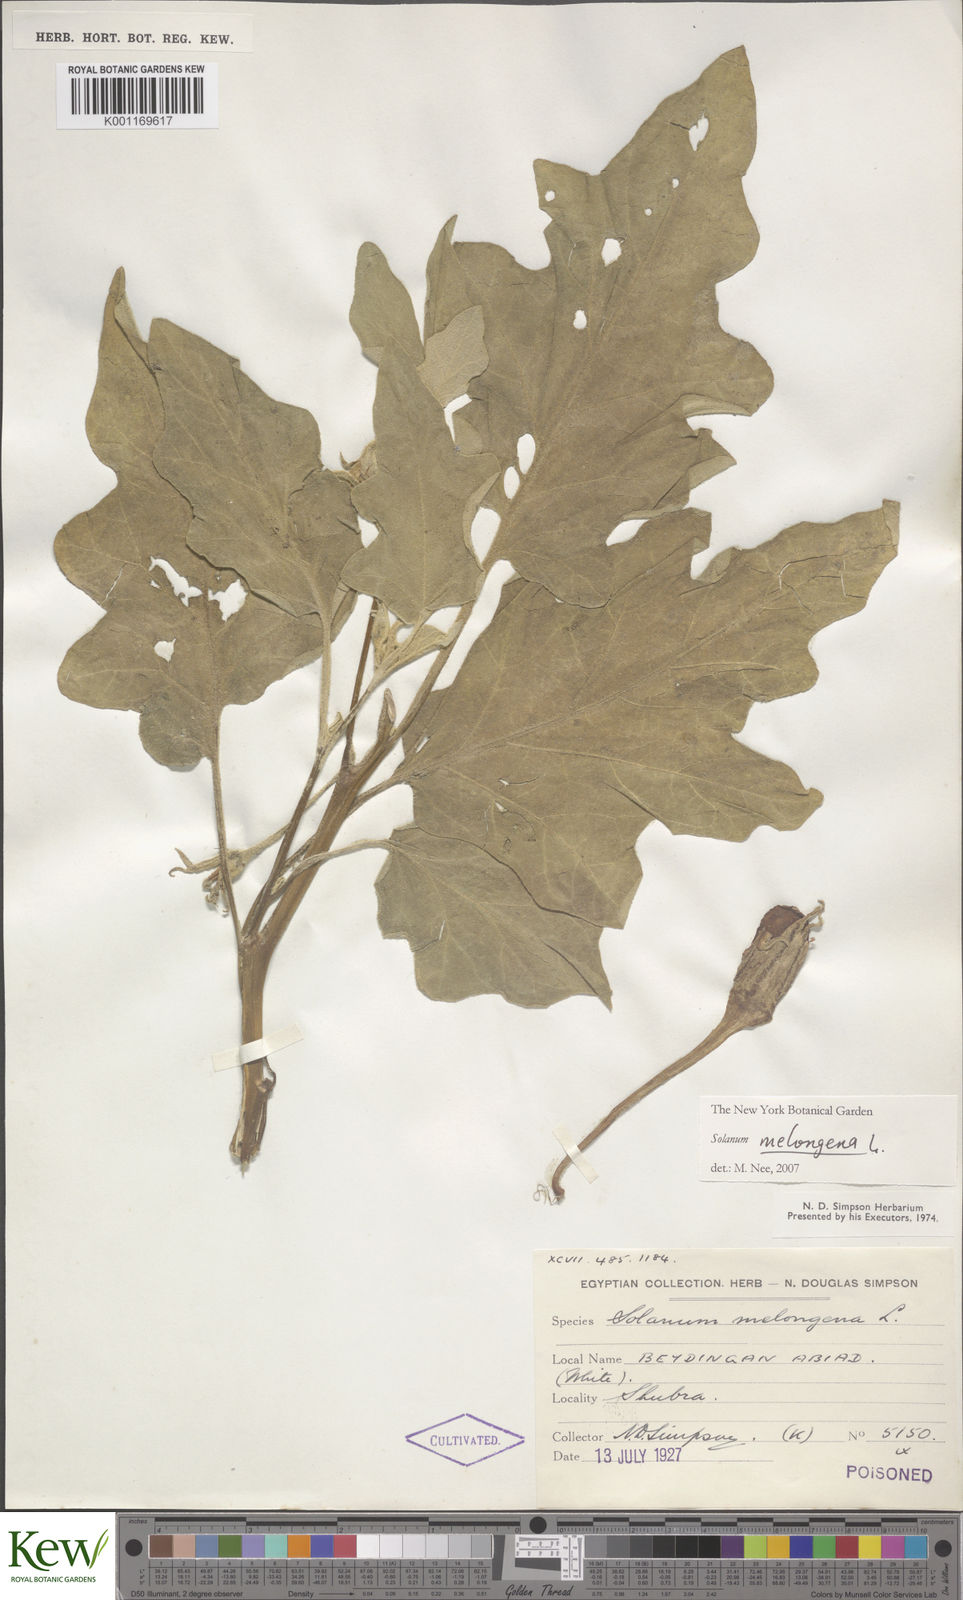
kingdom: Plantae
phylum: Tracheophyta
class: Magnoliopsida
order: Solanales
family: Solanaceae
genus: Solanum
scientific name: Solanum melongena
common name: Eggplant
